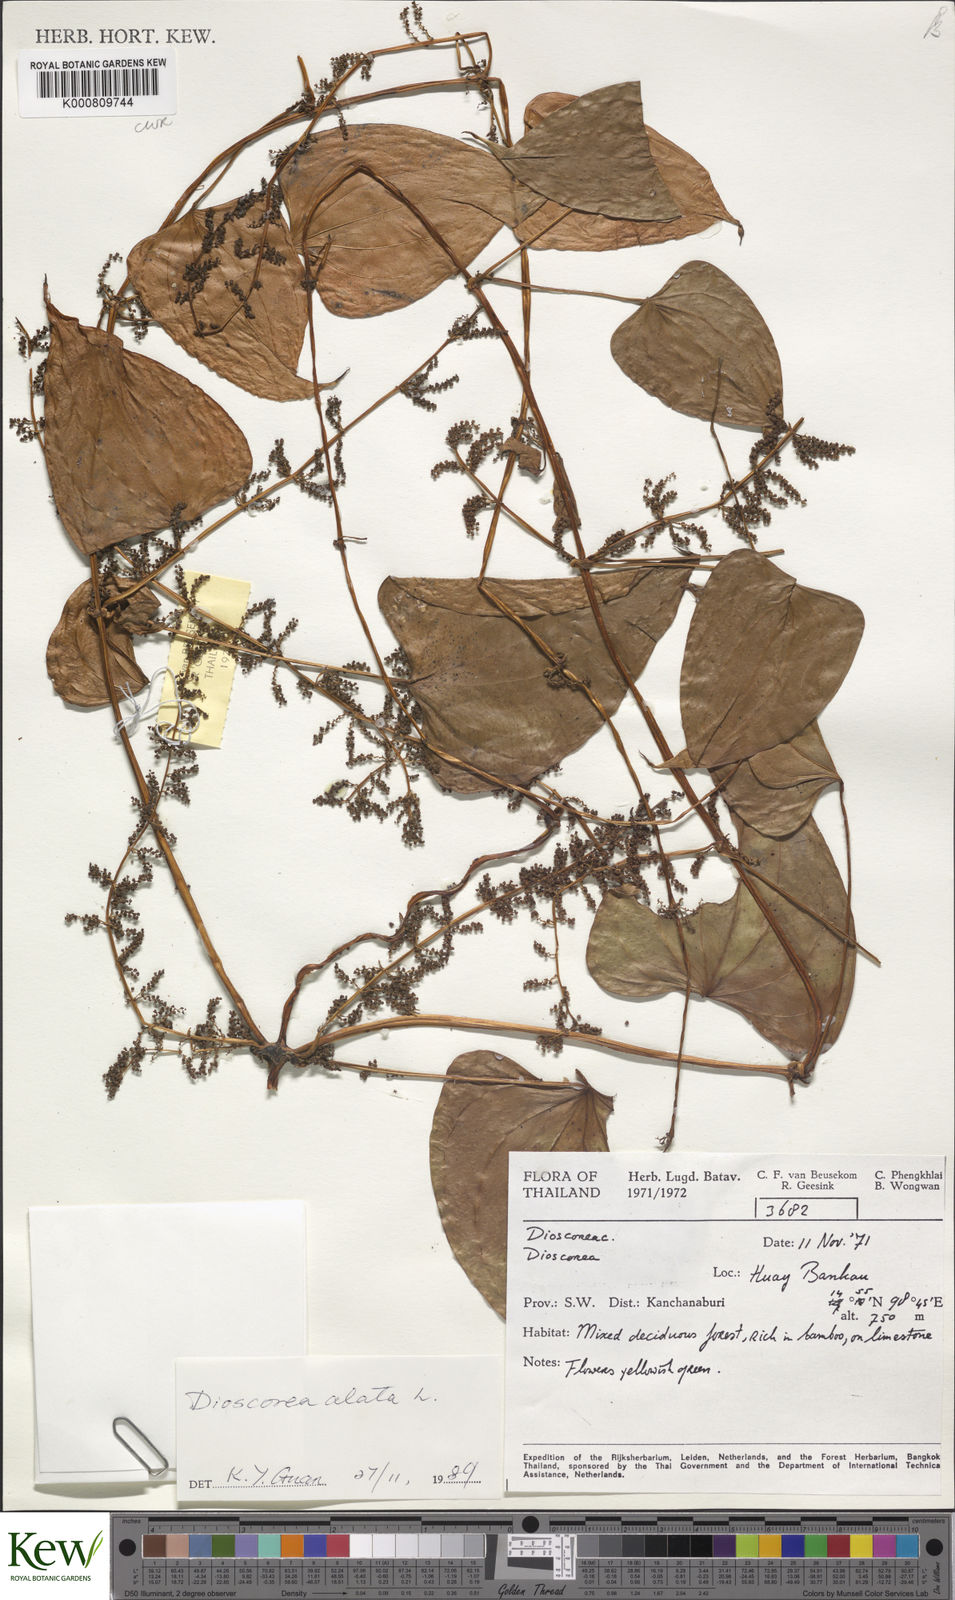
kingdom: Plantae
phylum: Tracheophyta
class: Liliopsida
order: Dioscoreales
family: Dioscoreaceae
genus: Dioscorea
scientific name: Dioscorea alata
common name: Water yam
